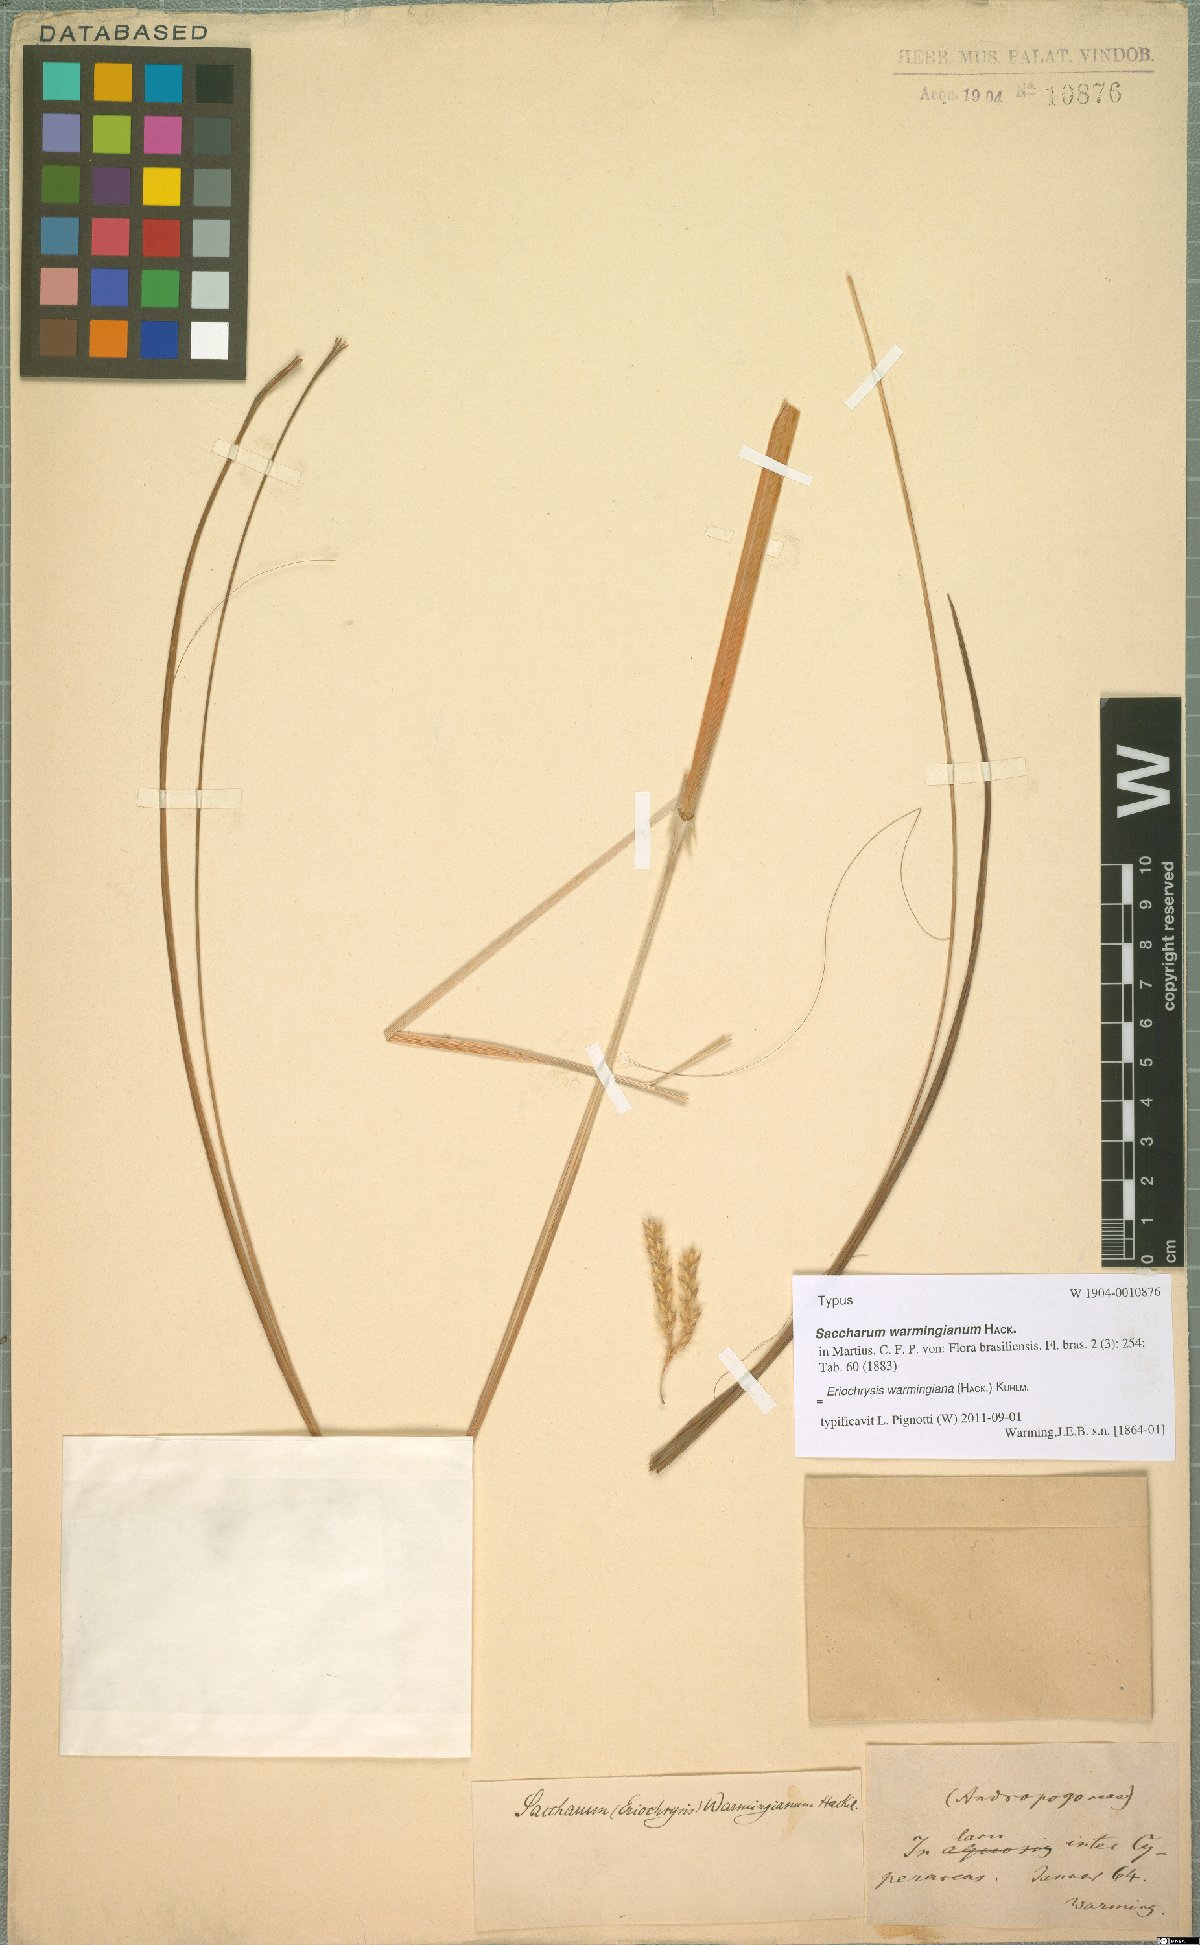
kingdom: Plantae
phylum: Tracheophyta
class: Liliopsida
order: Poales
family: Poaceae
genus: Eriochrysis
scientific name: Eriochrysis warmingiana
